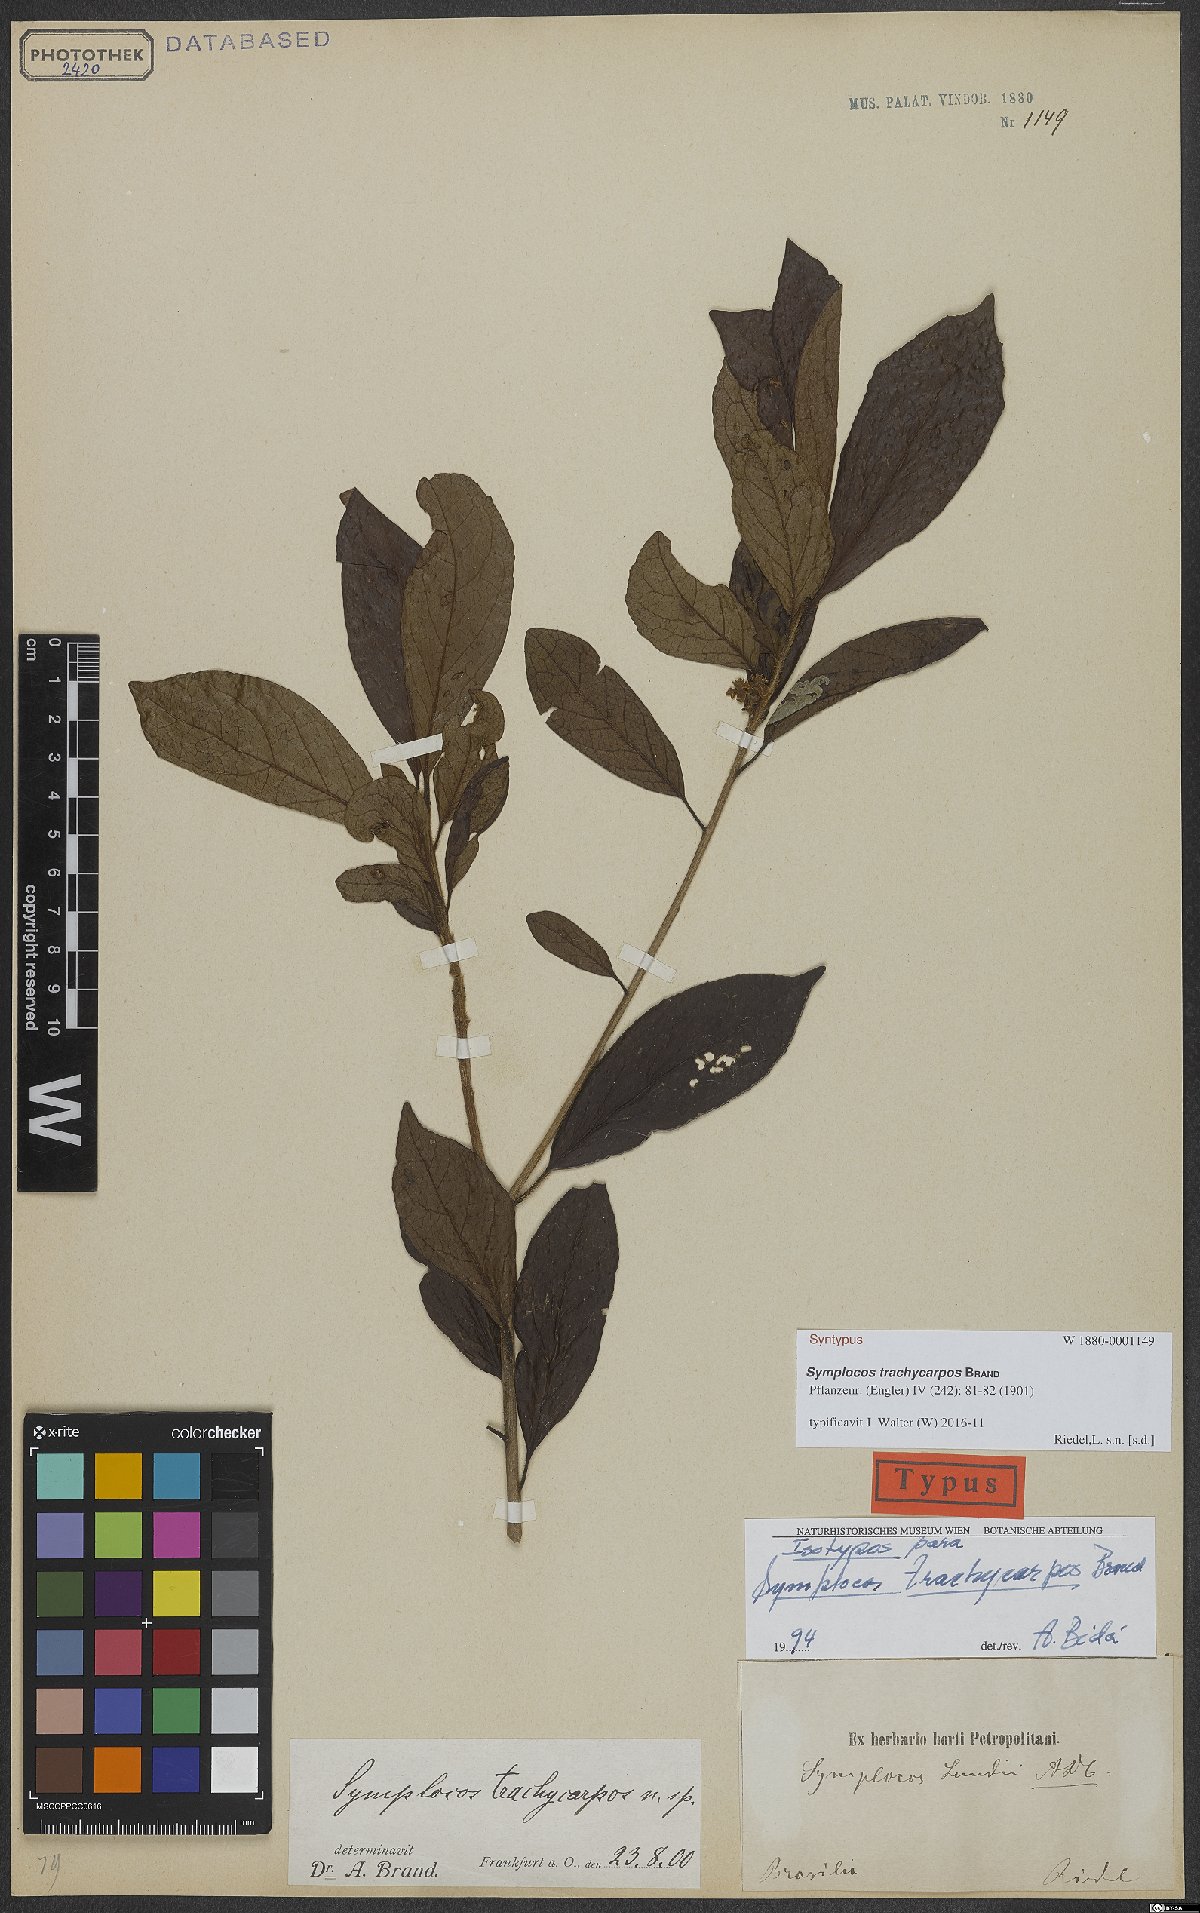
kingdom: Plantae
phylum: Tracheophyta
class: Magnoliopsida
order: Ericales
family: Symplocaceae
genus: Symplocos
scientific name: Symplocos trachycarpos
